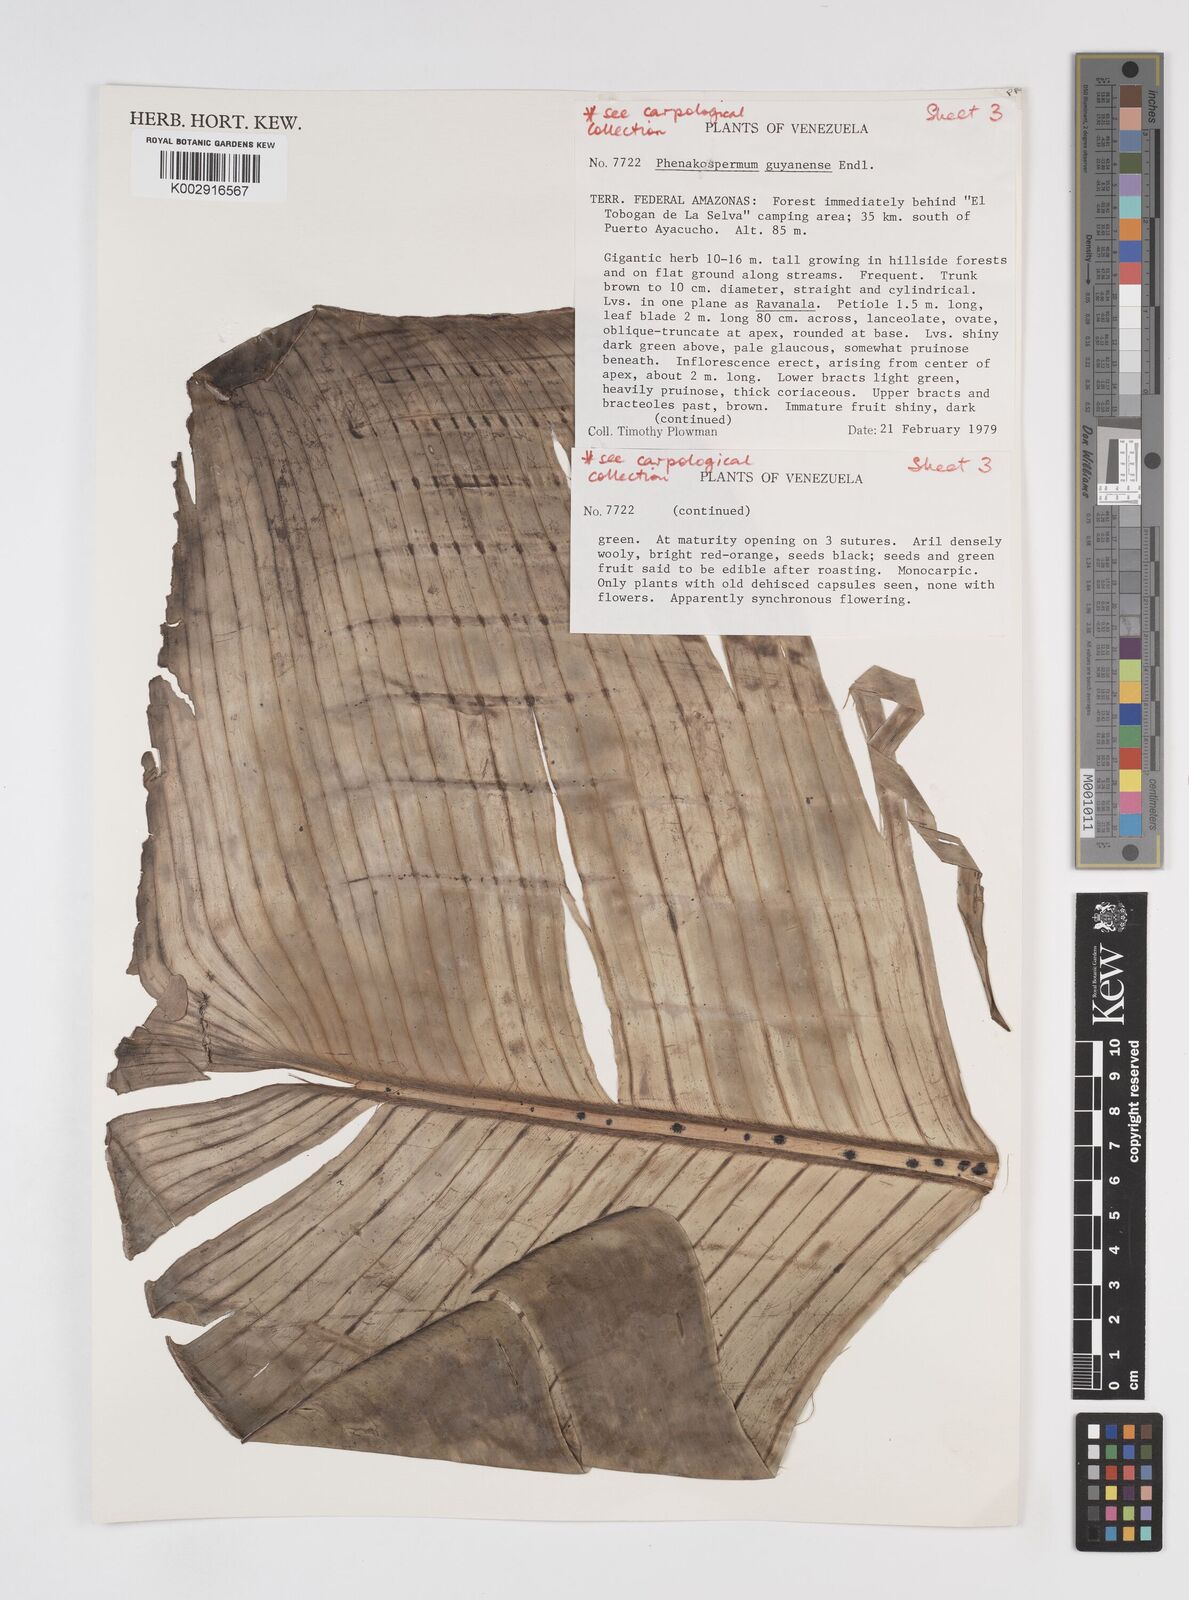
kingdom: Plantae
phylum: Tracheophyta
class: Liliopsida
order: Zingiberales
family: Strelitziaceae
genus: Phenakospermum
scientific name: Phenakospermum guyannense
